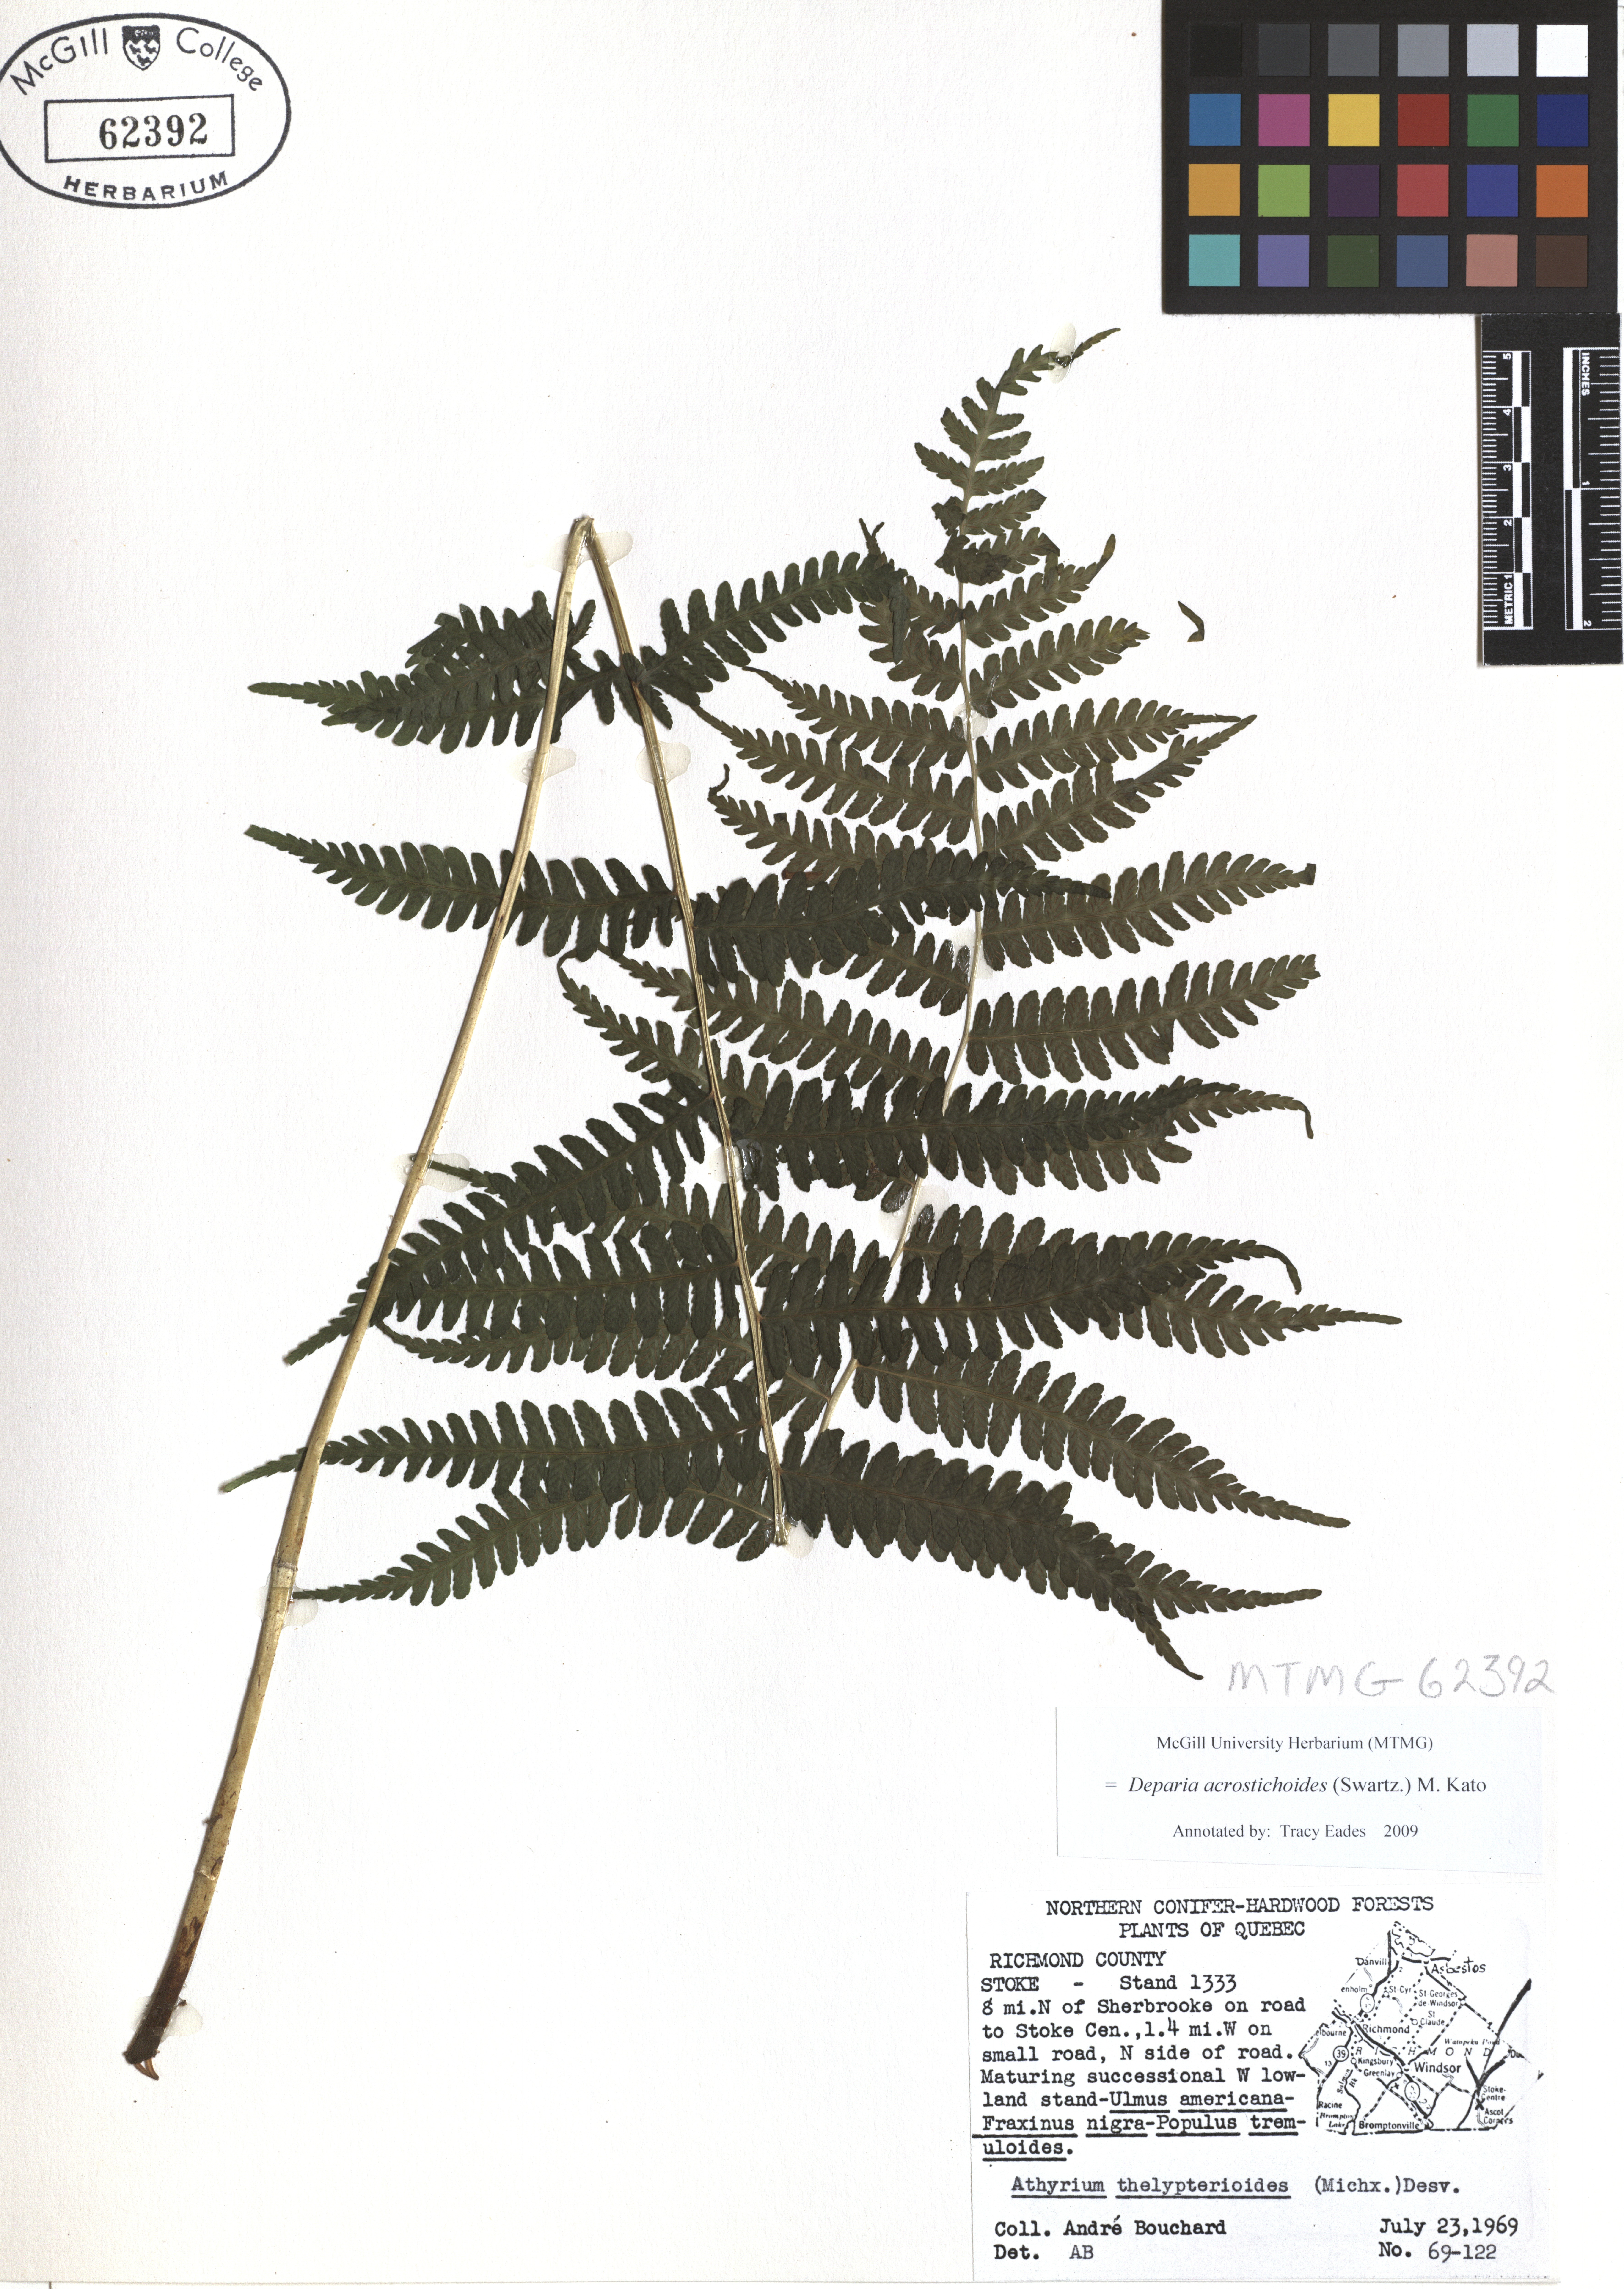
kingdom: Plantae
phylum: Tracheophyta
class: Polypodiopsida
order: Polypodiales
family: Athyriaceae
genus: Deparia
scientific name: Deparia acrostichoides
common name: Silver false spleenwort
